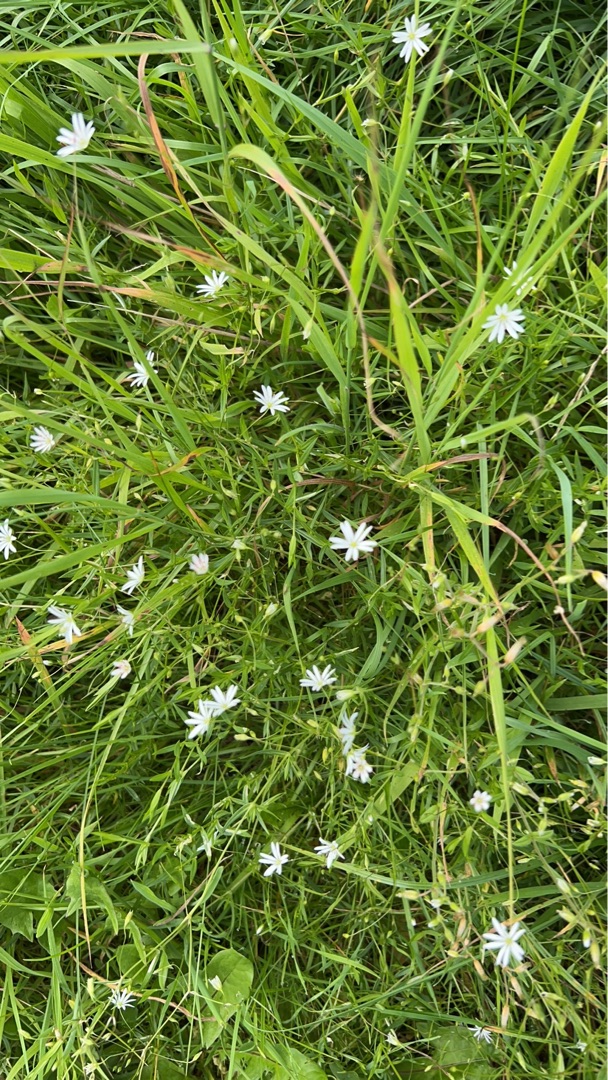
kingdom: Plantae
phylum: Tracheophyta
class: Magnoliopsida
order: Caryophyllales
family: Caryophyllaceae
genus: Stellaria
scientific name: Stellaria graminea
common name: Græsbladet fladstjerne
